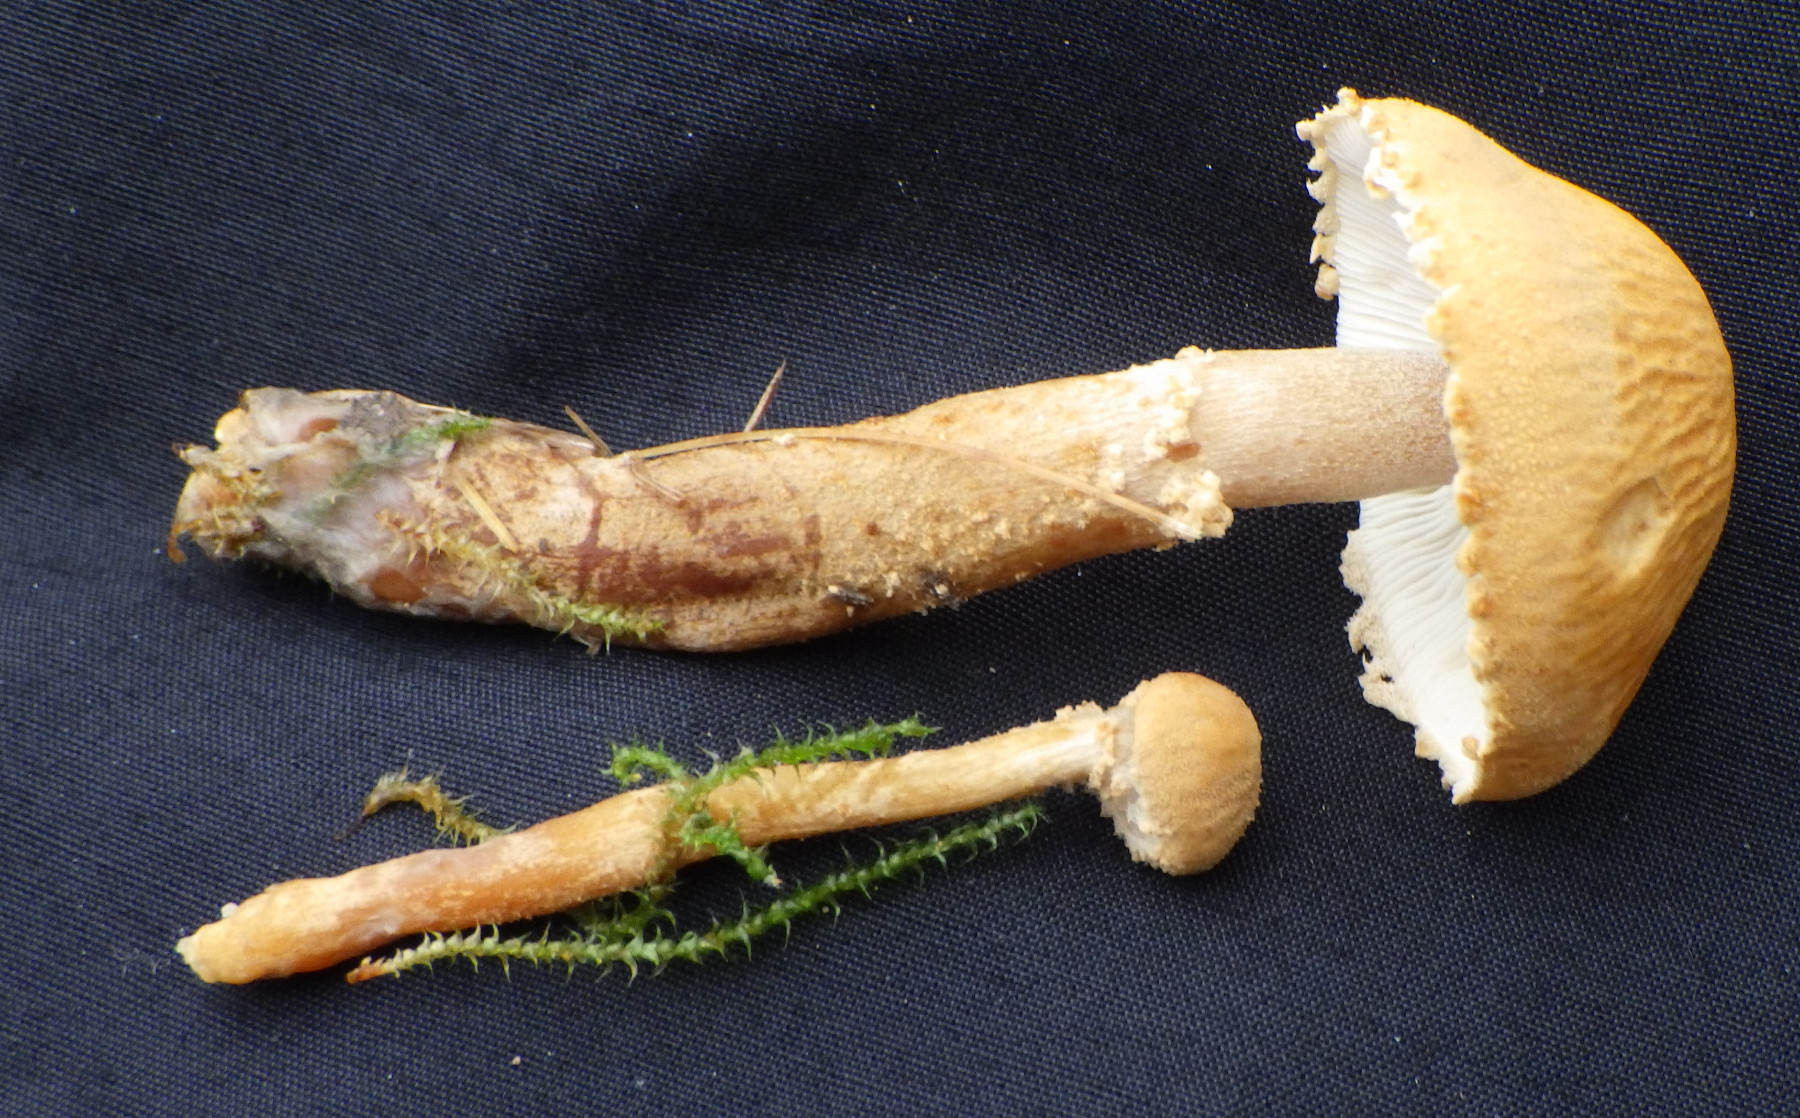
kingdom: Fungi
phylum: Basidiomycota
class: Agaricomycetes
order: Agaricales
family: Tricholomataceae
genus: Cystoderma
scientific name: Cystoderma amianthinum
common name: okkergul grynhat
